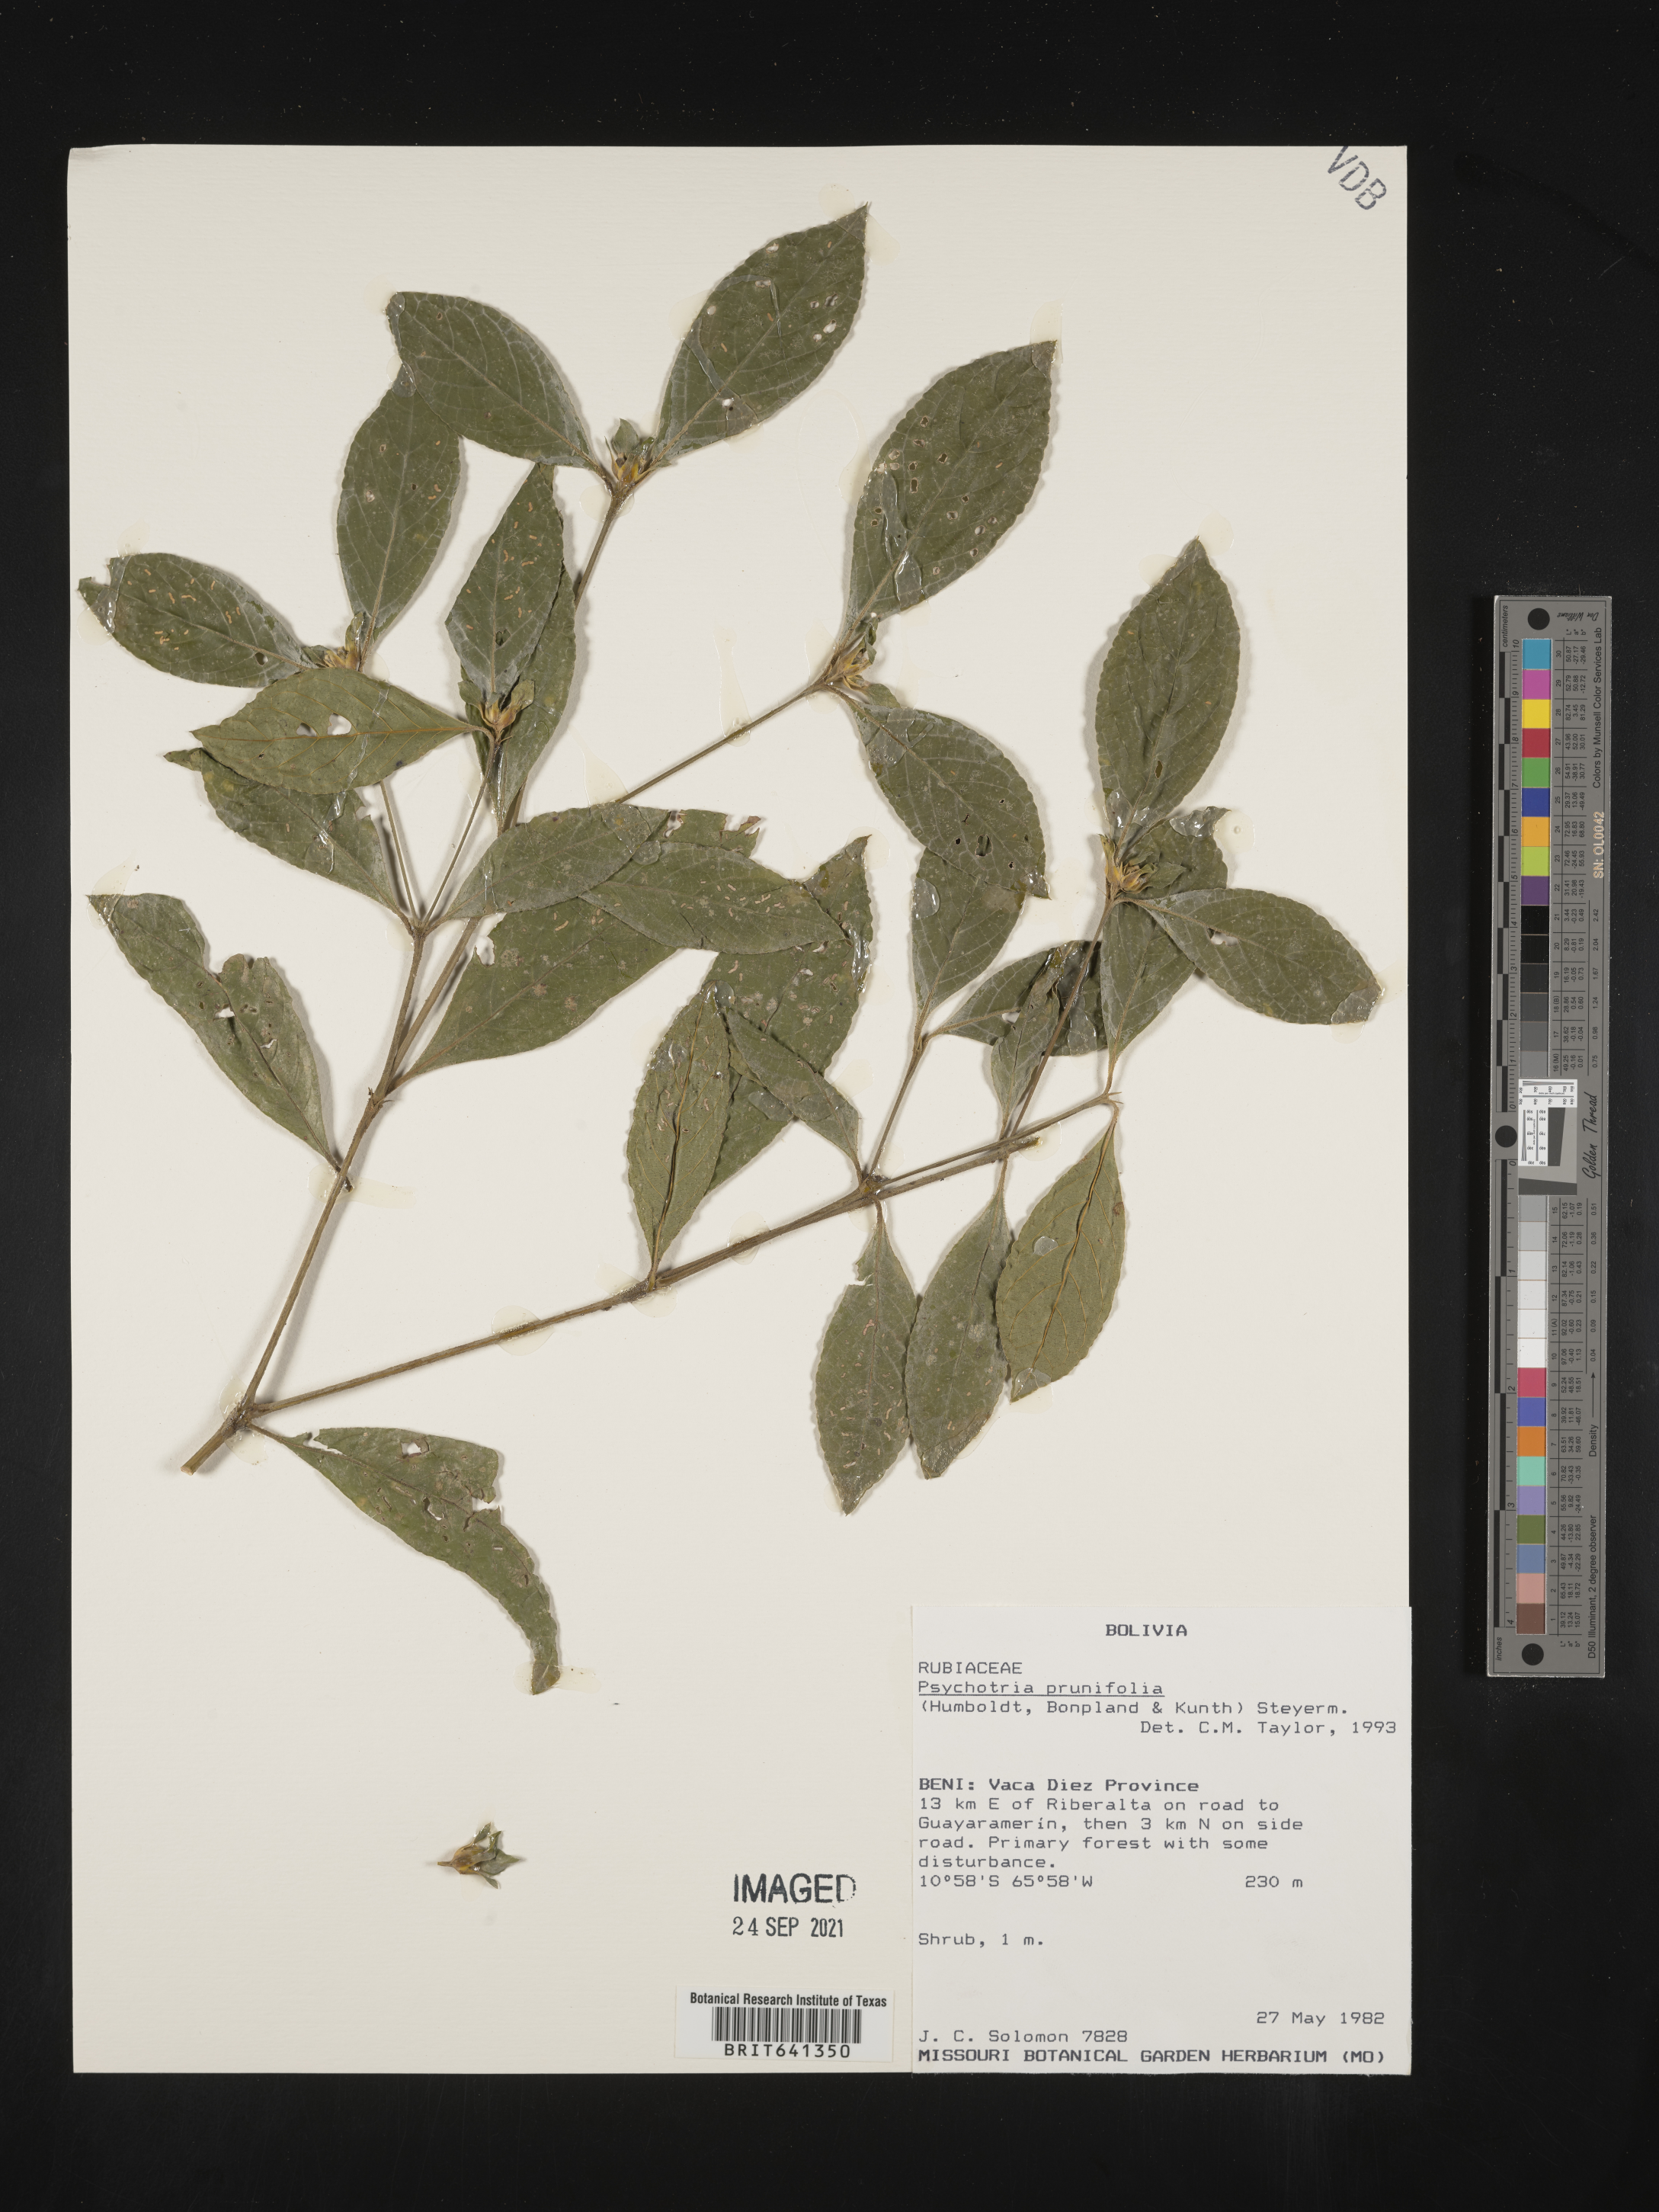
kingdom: Plantae
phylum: Tracheophyta
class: Magnoliopsida
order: Gentianales
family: Rubiaceae
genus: Psychotria
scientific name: Psychotria
